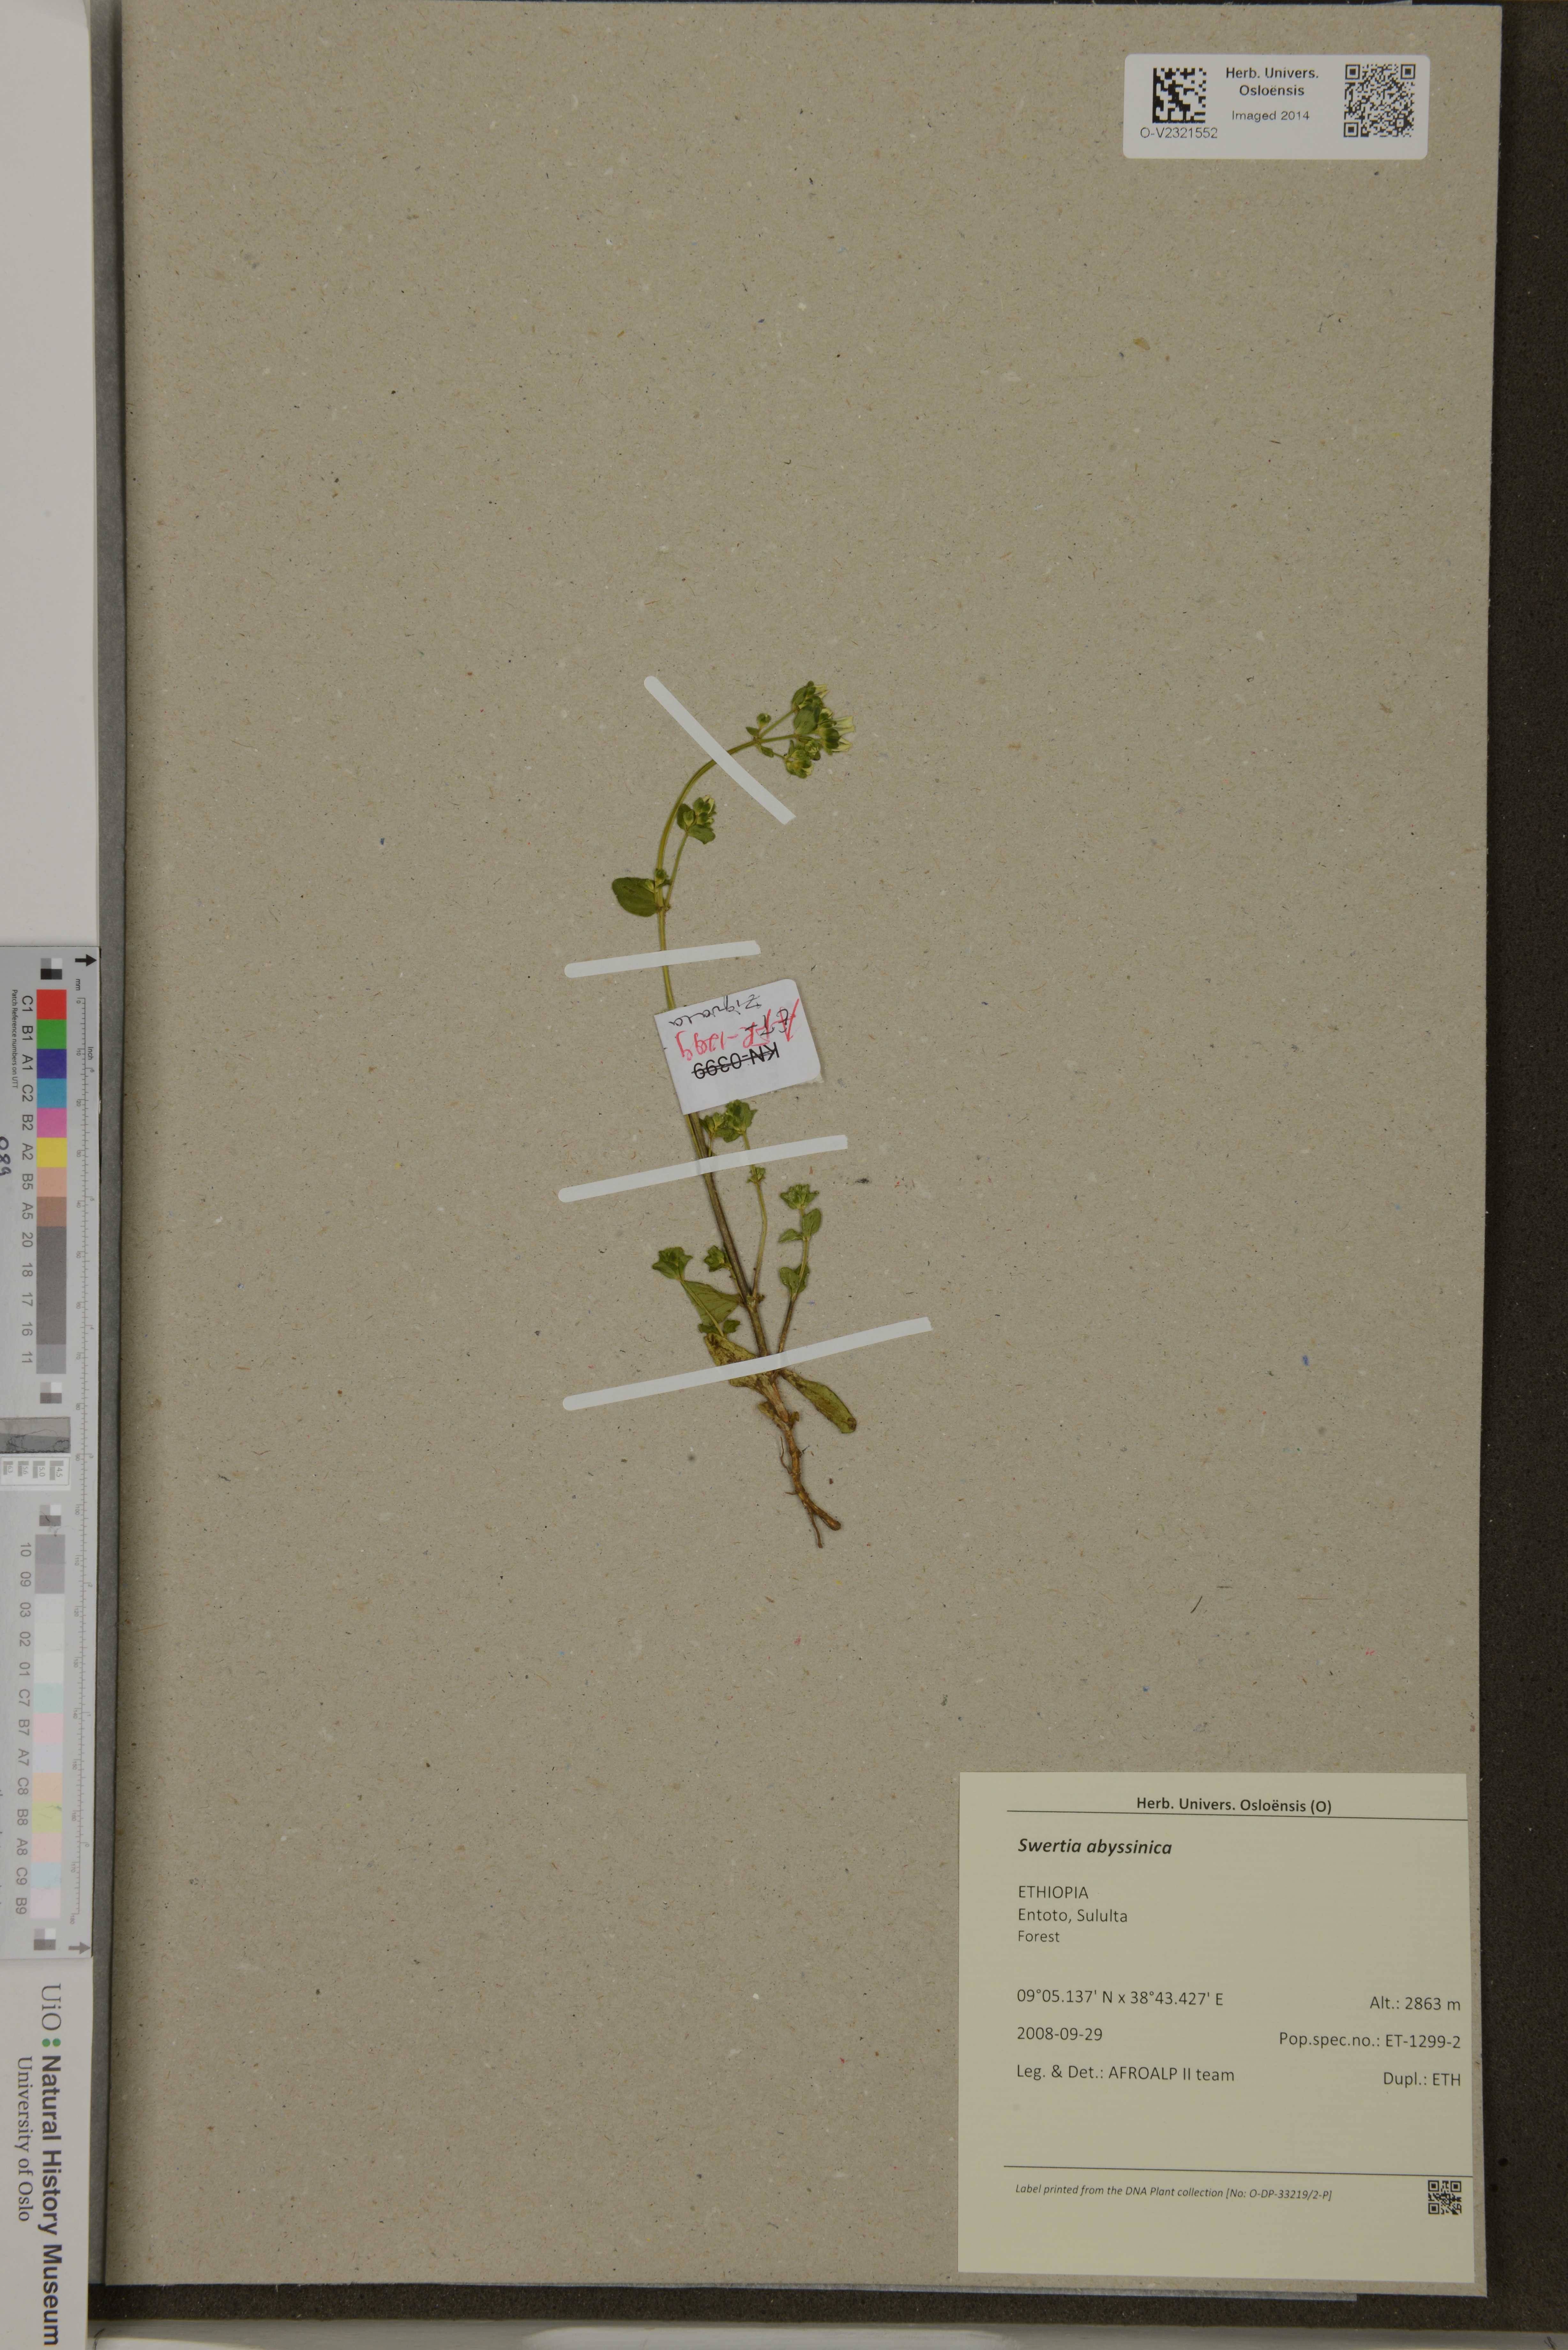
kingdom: Plantae
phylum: Tracheophyta
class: Magnoliopsida
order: Gentianales
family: Gentianaceae
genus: Swertia
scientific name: Swertia abyssinica
